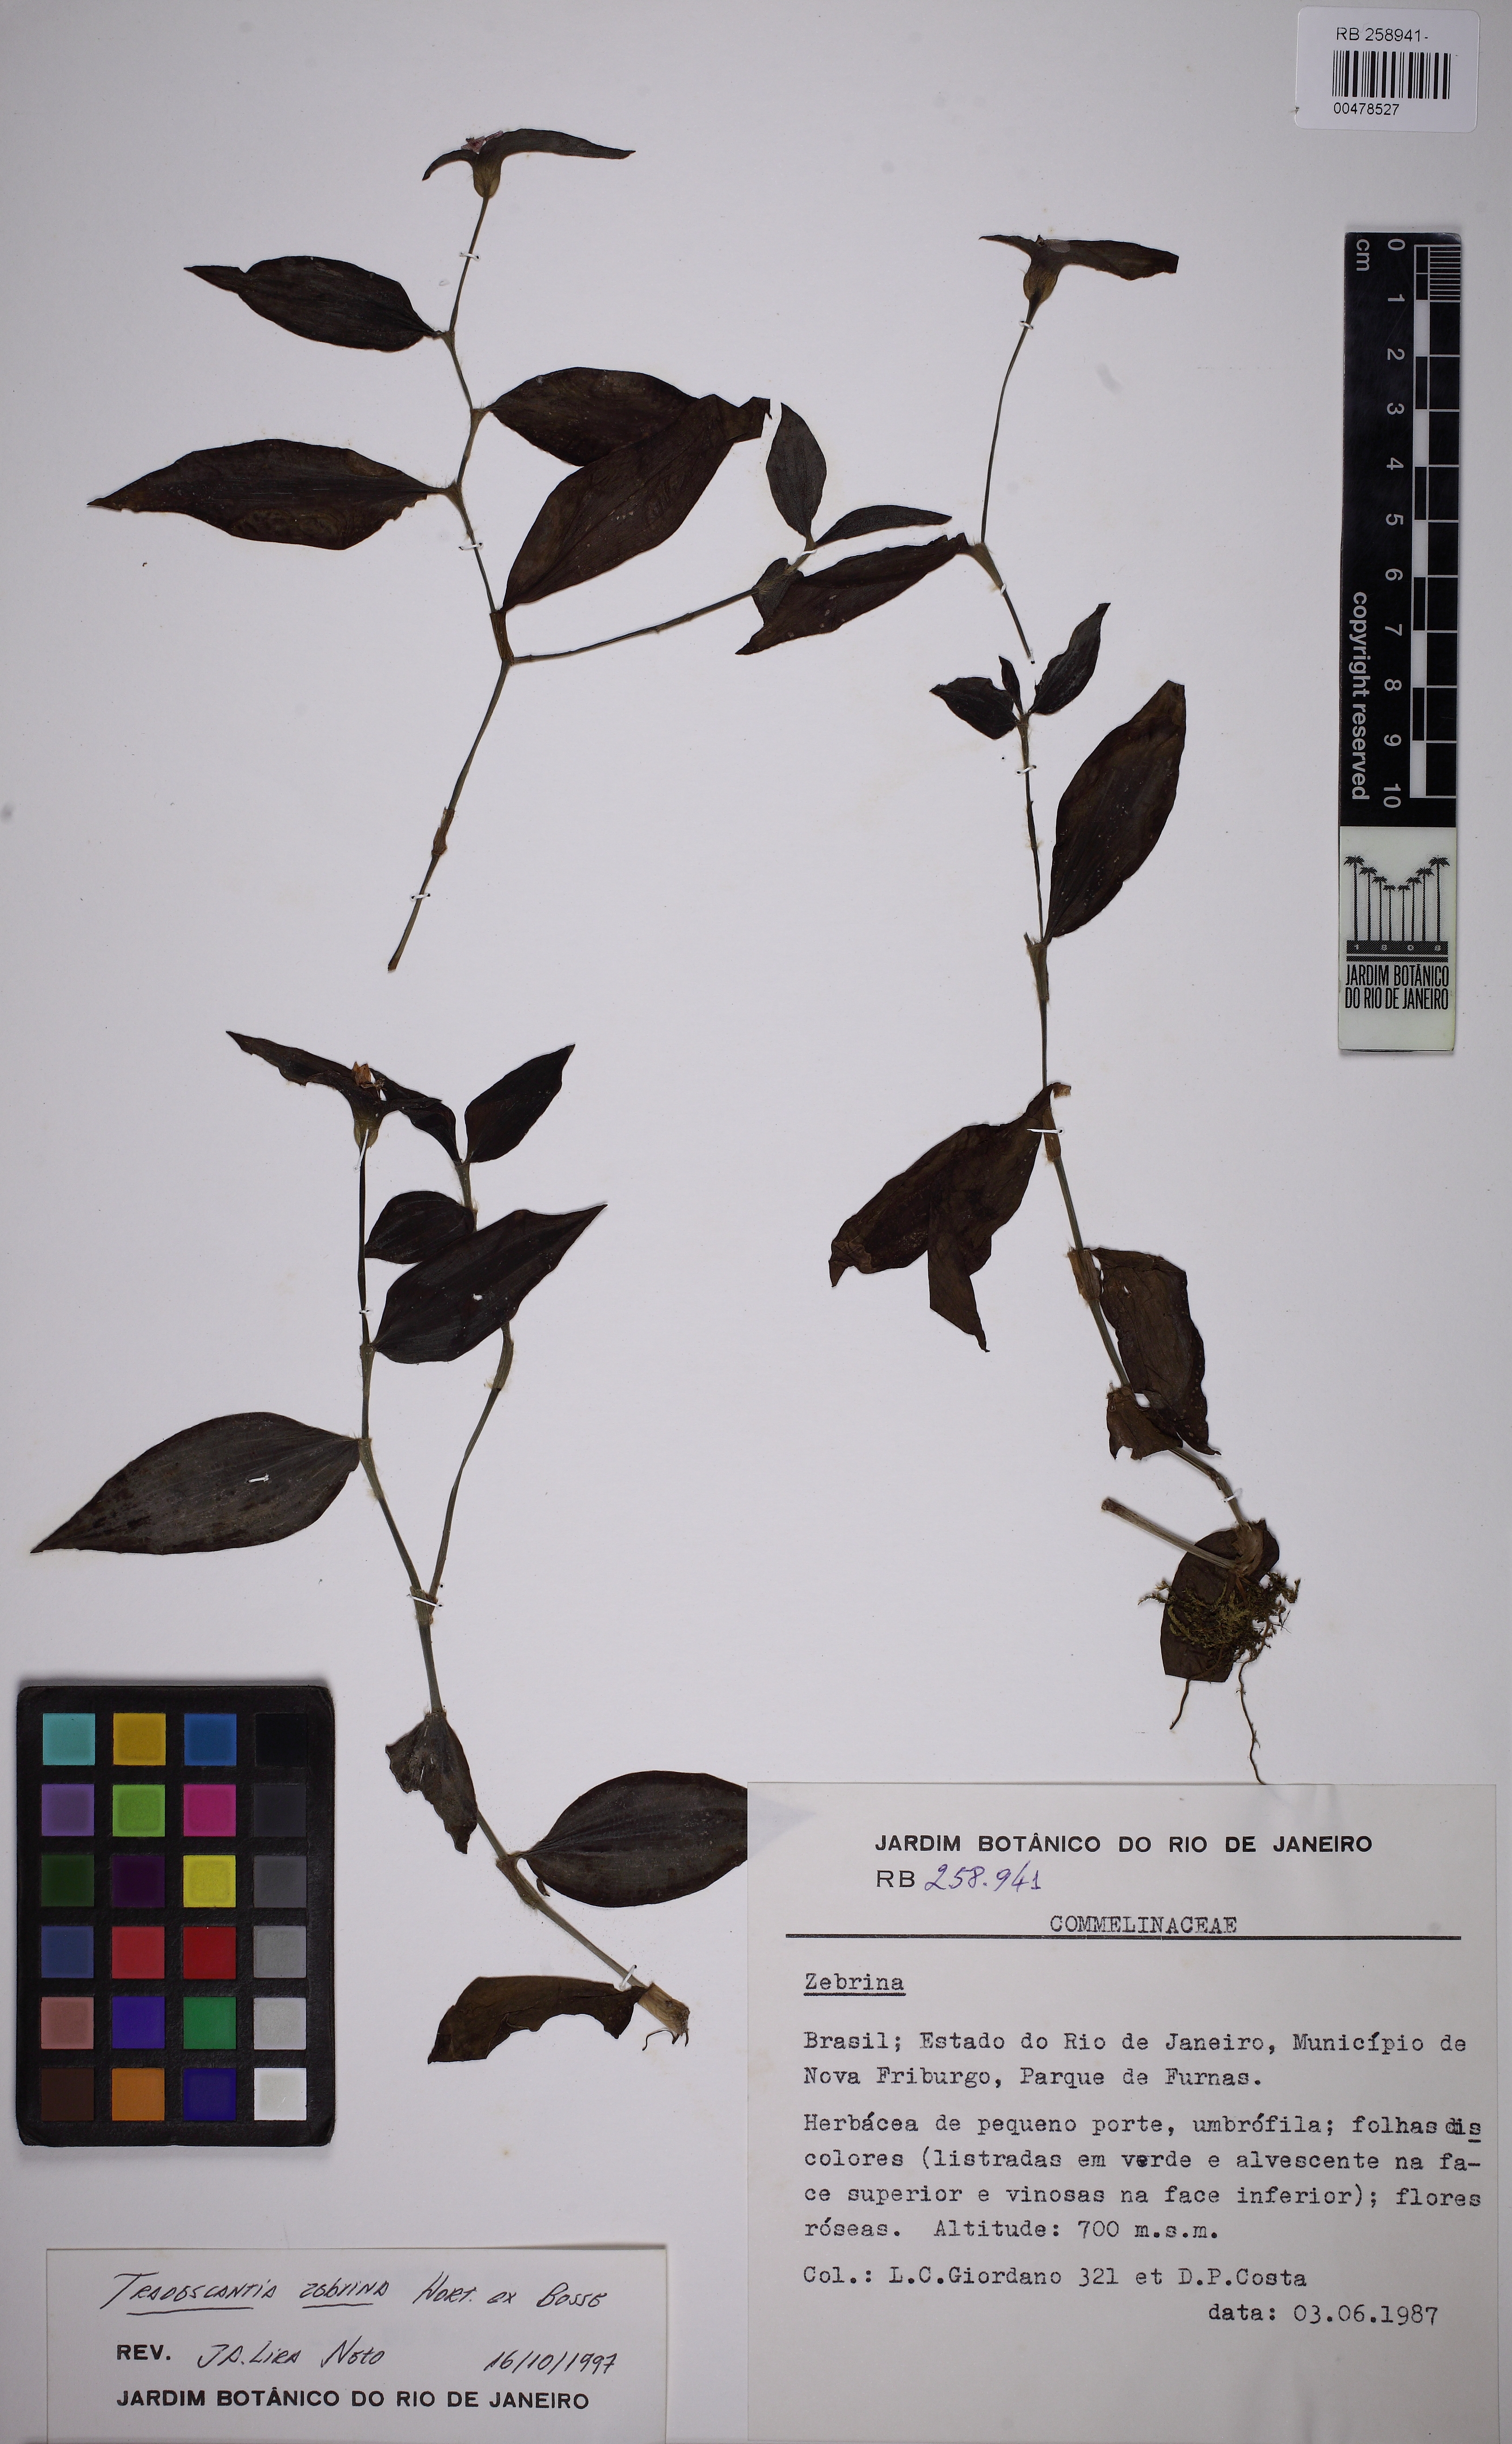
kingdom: Plantae
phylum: Tracheophyta
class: Liliopsida
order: Commelinales
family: Commelinaceae
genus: Tradescantia
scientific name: Tradescantia zanonia
